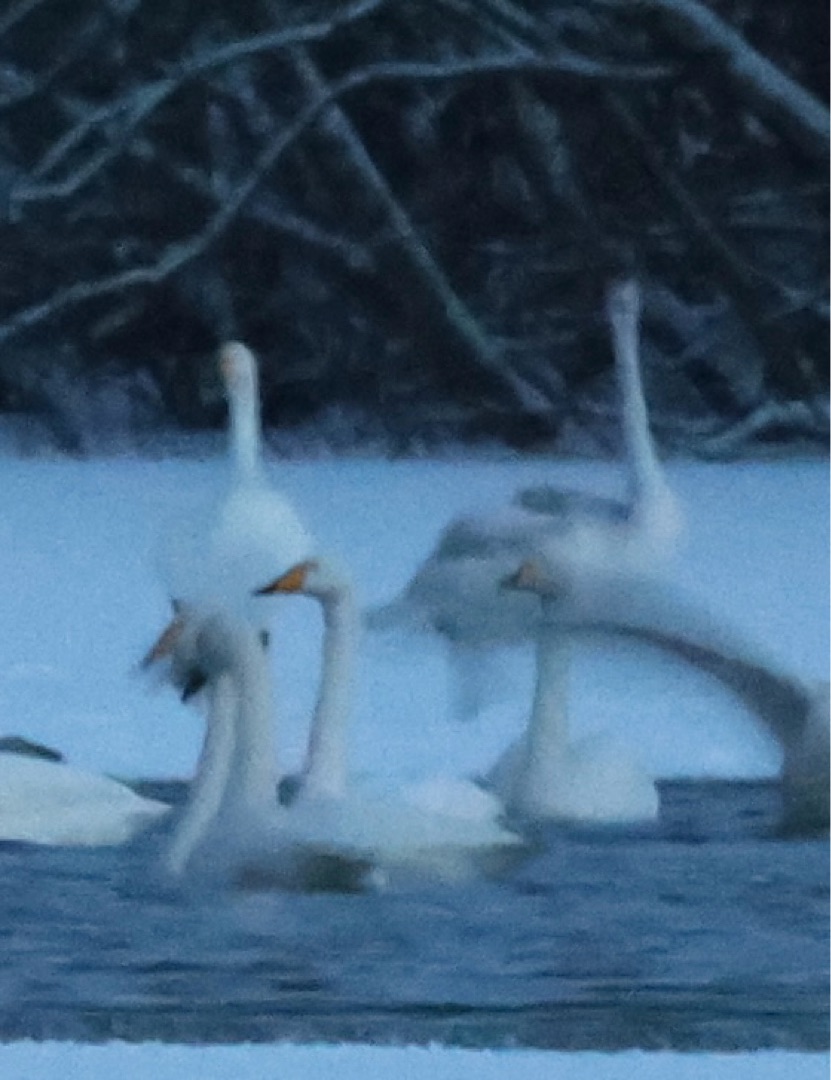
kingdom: Animalia
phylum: Chordata
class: Aves
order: Anseriformes
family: Anatidae
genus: Cygnus
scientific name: Cygnus cygnus
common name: Sangsvane
